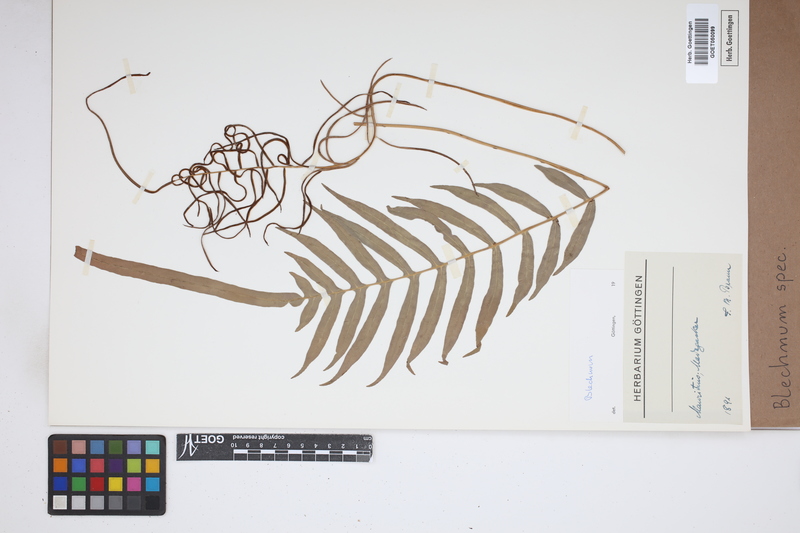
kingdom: Plantae
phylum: Tracheophyta
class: Polypodiopsida
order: Polypodiales
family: Blechnaceae
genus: Blechnum
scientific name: Blechnum
